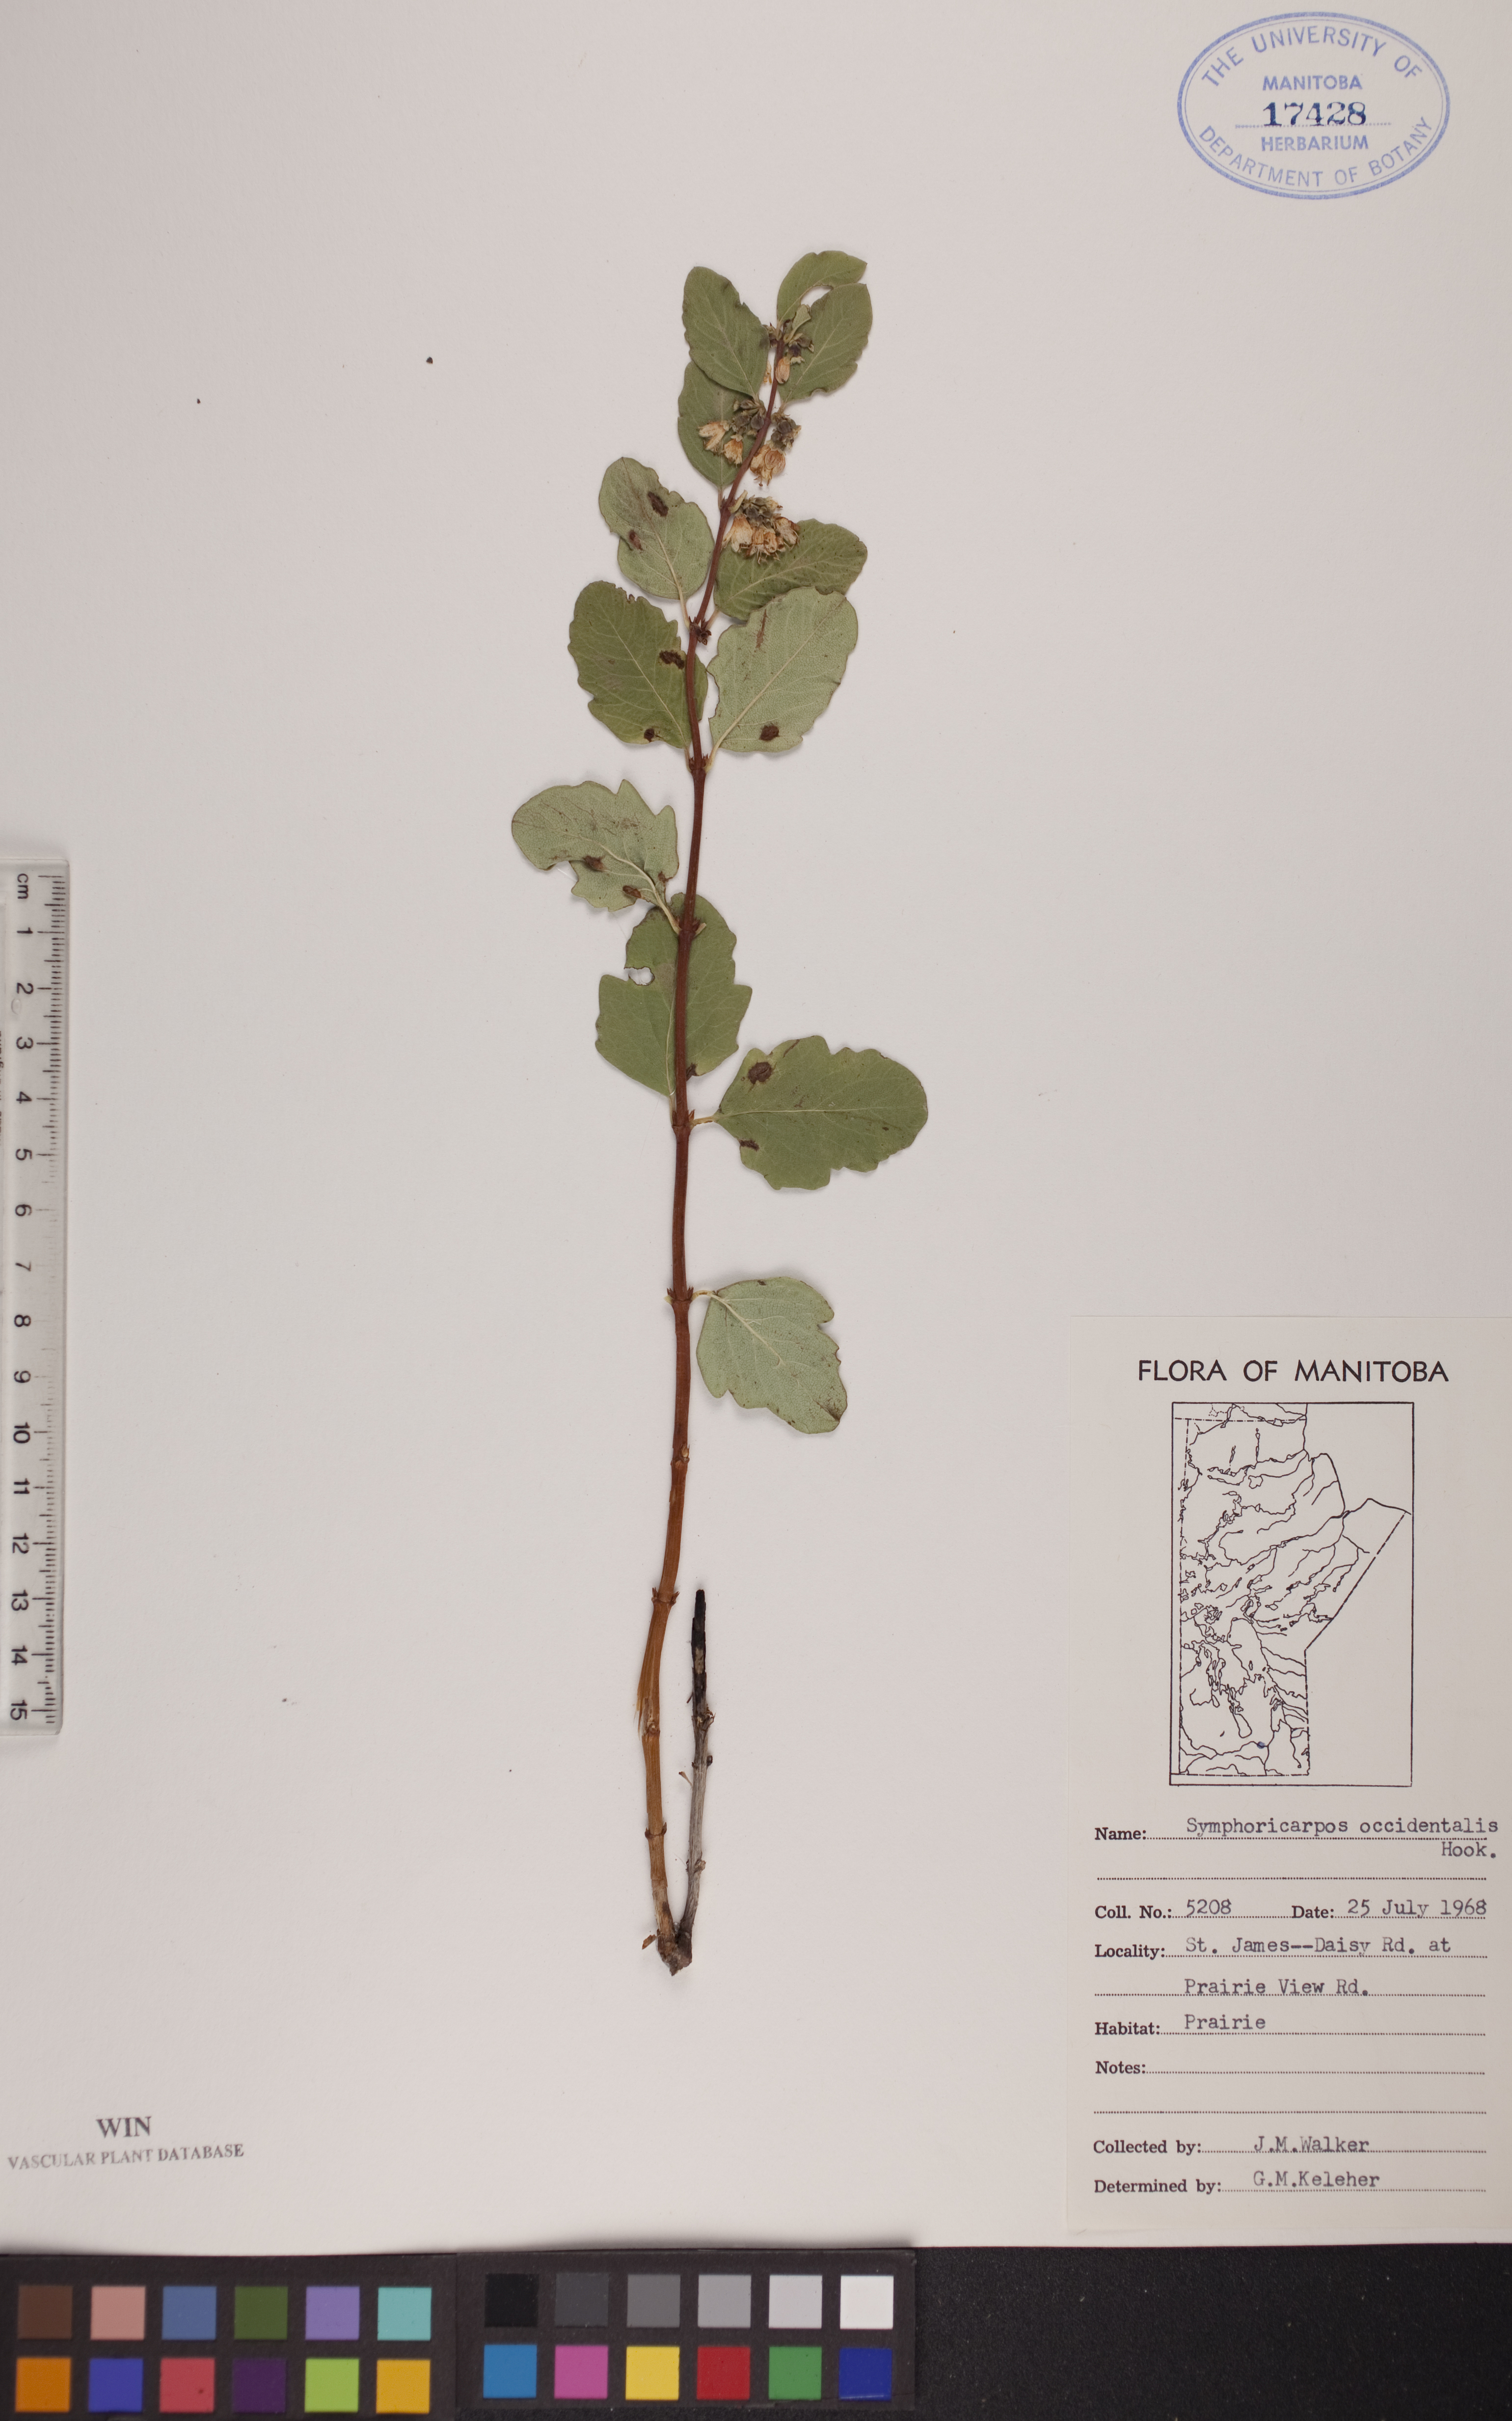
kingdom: Plantae
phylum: Tracheophyta
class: Magnoliopsida
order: Dipsacales
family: Caprifoliaceae
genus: Symphoricarpos
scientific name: Symphoricarpos occidentalis
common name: Wolfberry
